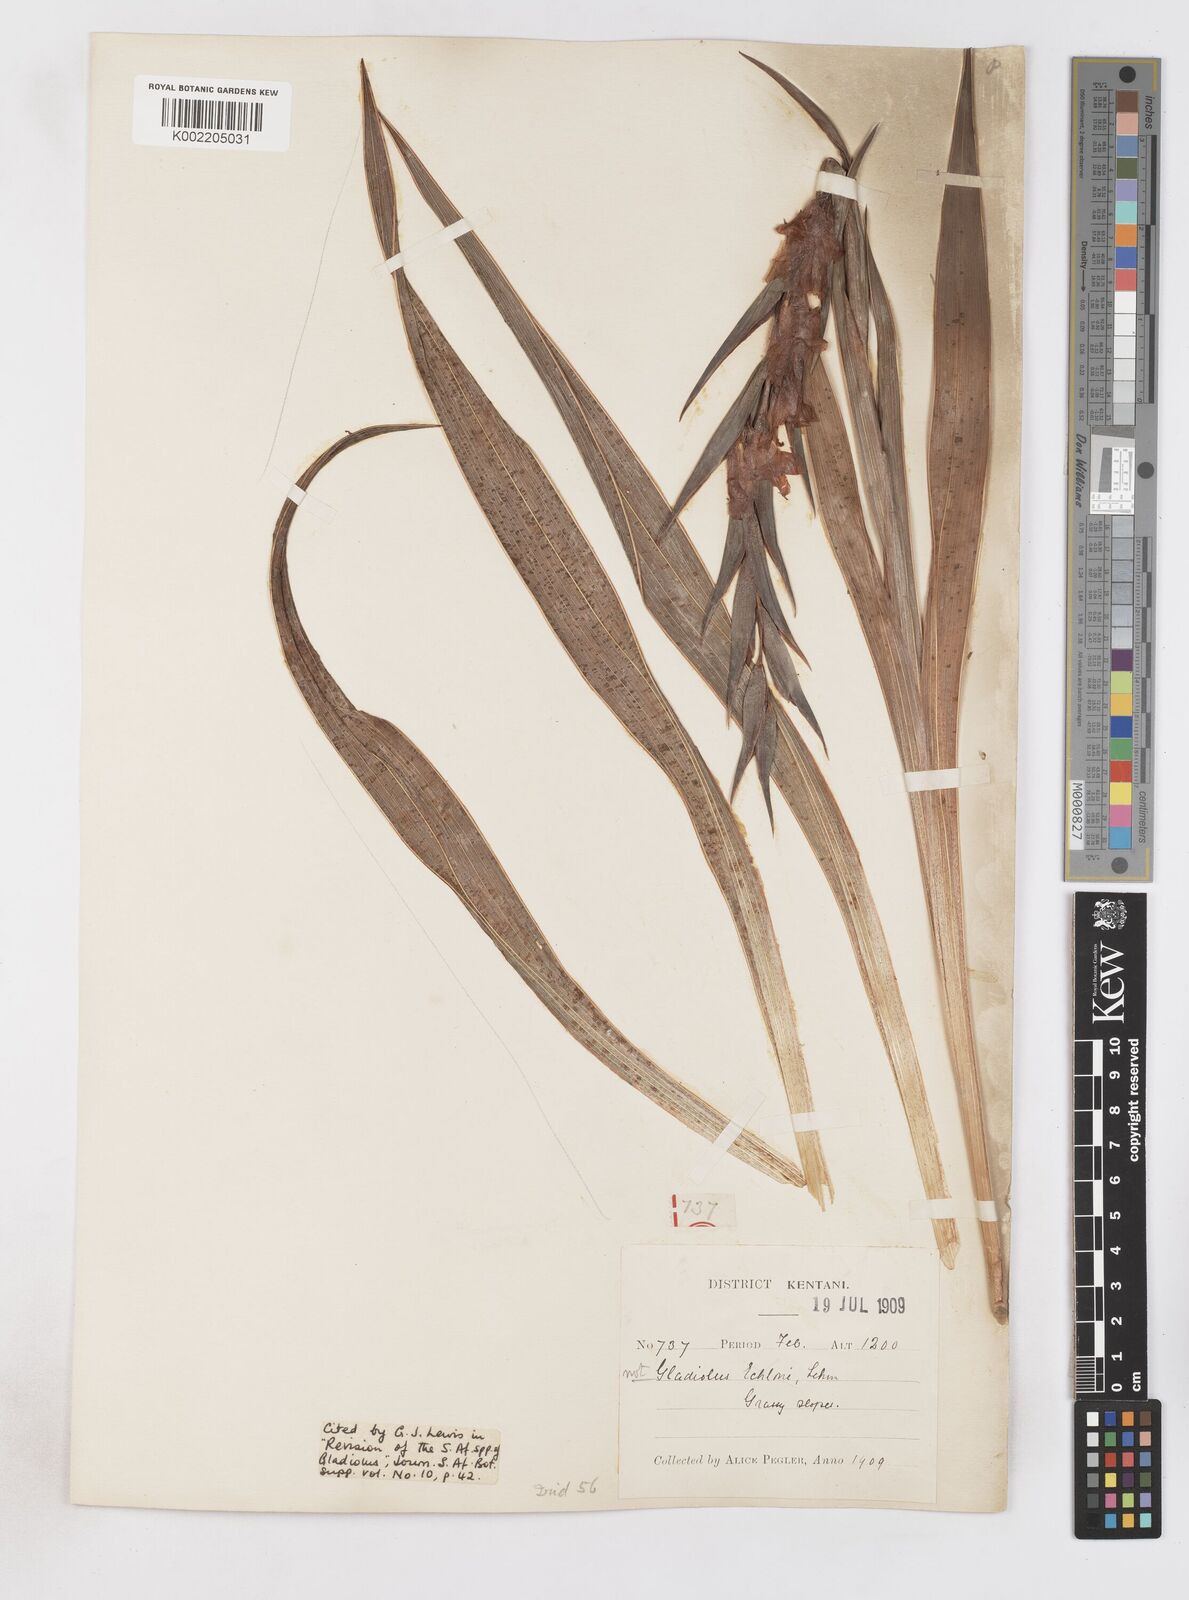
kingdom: Plantae
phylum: Tracheophyta
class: Liliopsida
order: Asparagales
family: Iridaceae
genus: Gladiolus
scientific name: Gladiolus ecklonii
